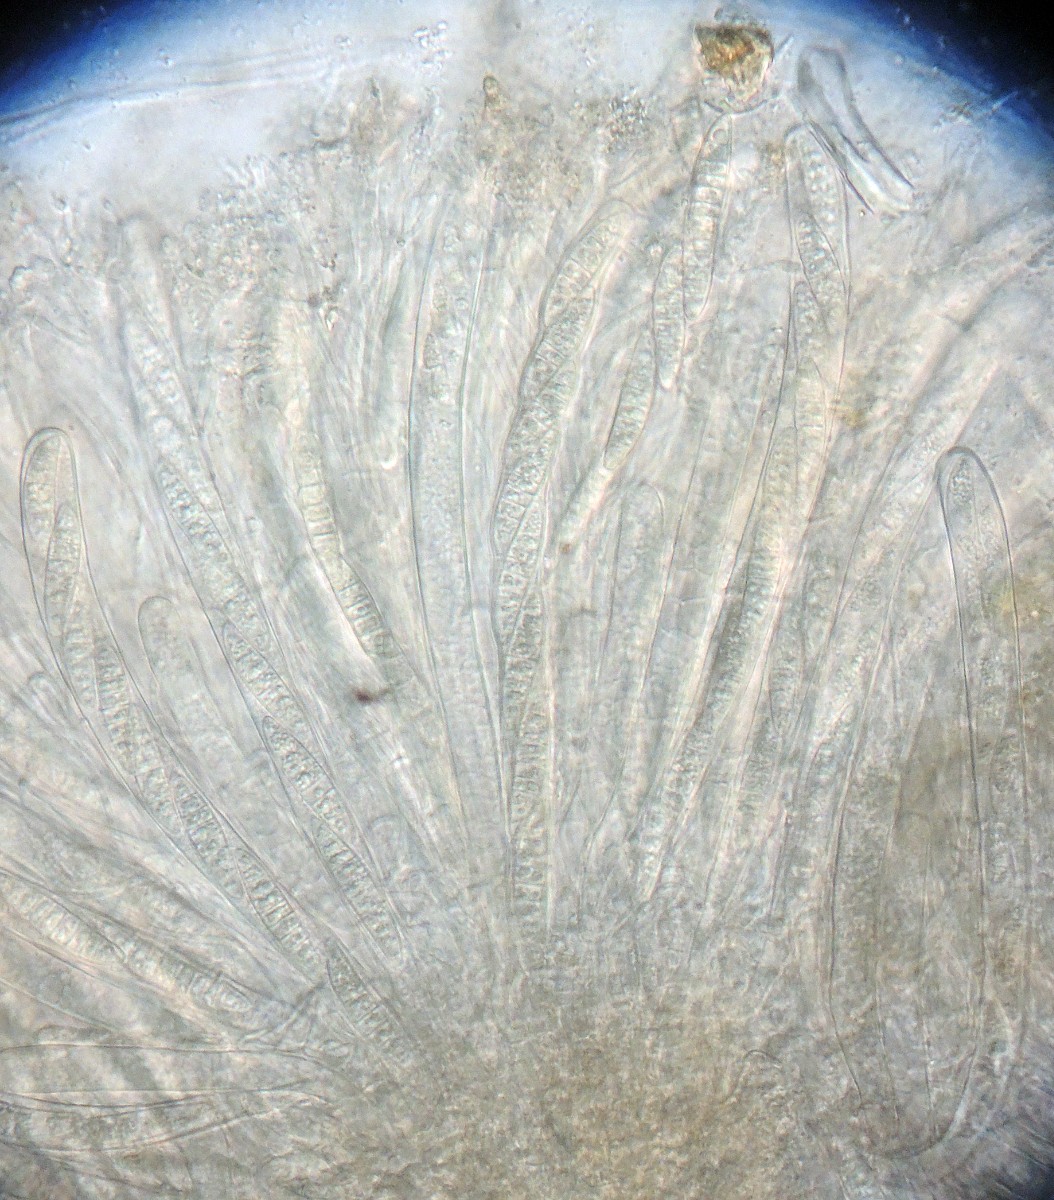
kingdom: Fungi
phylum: Ascomycota
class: Leotiomycetes
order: Helotiales
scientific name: Helotiales
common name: stilkskiveordenen
